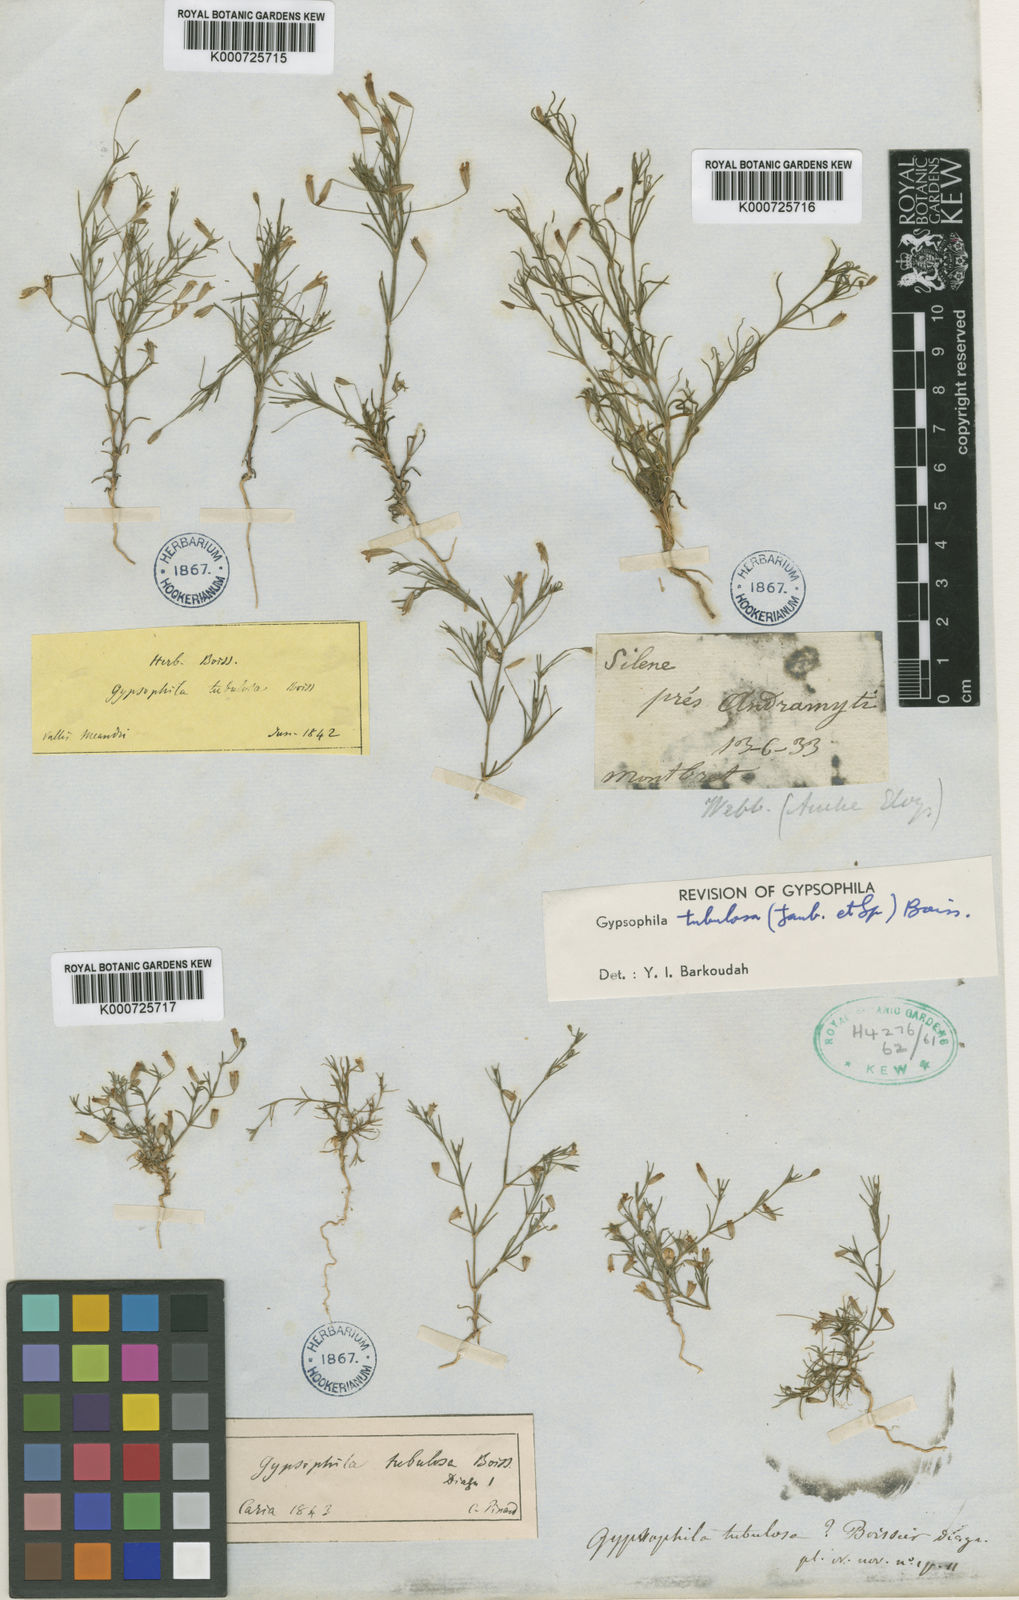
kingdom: Plantae
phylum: Tracheophyta
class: Magnoliopsida
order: Caryophyllales
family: Caryophyllaceae
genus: Psammophiliella
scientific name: Psammophiliella tubulosa
